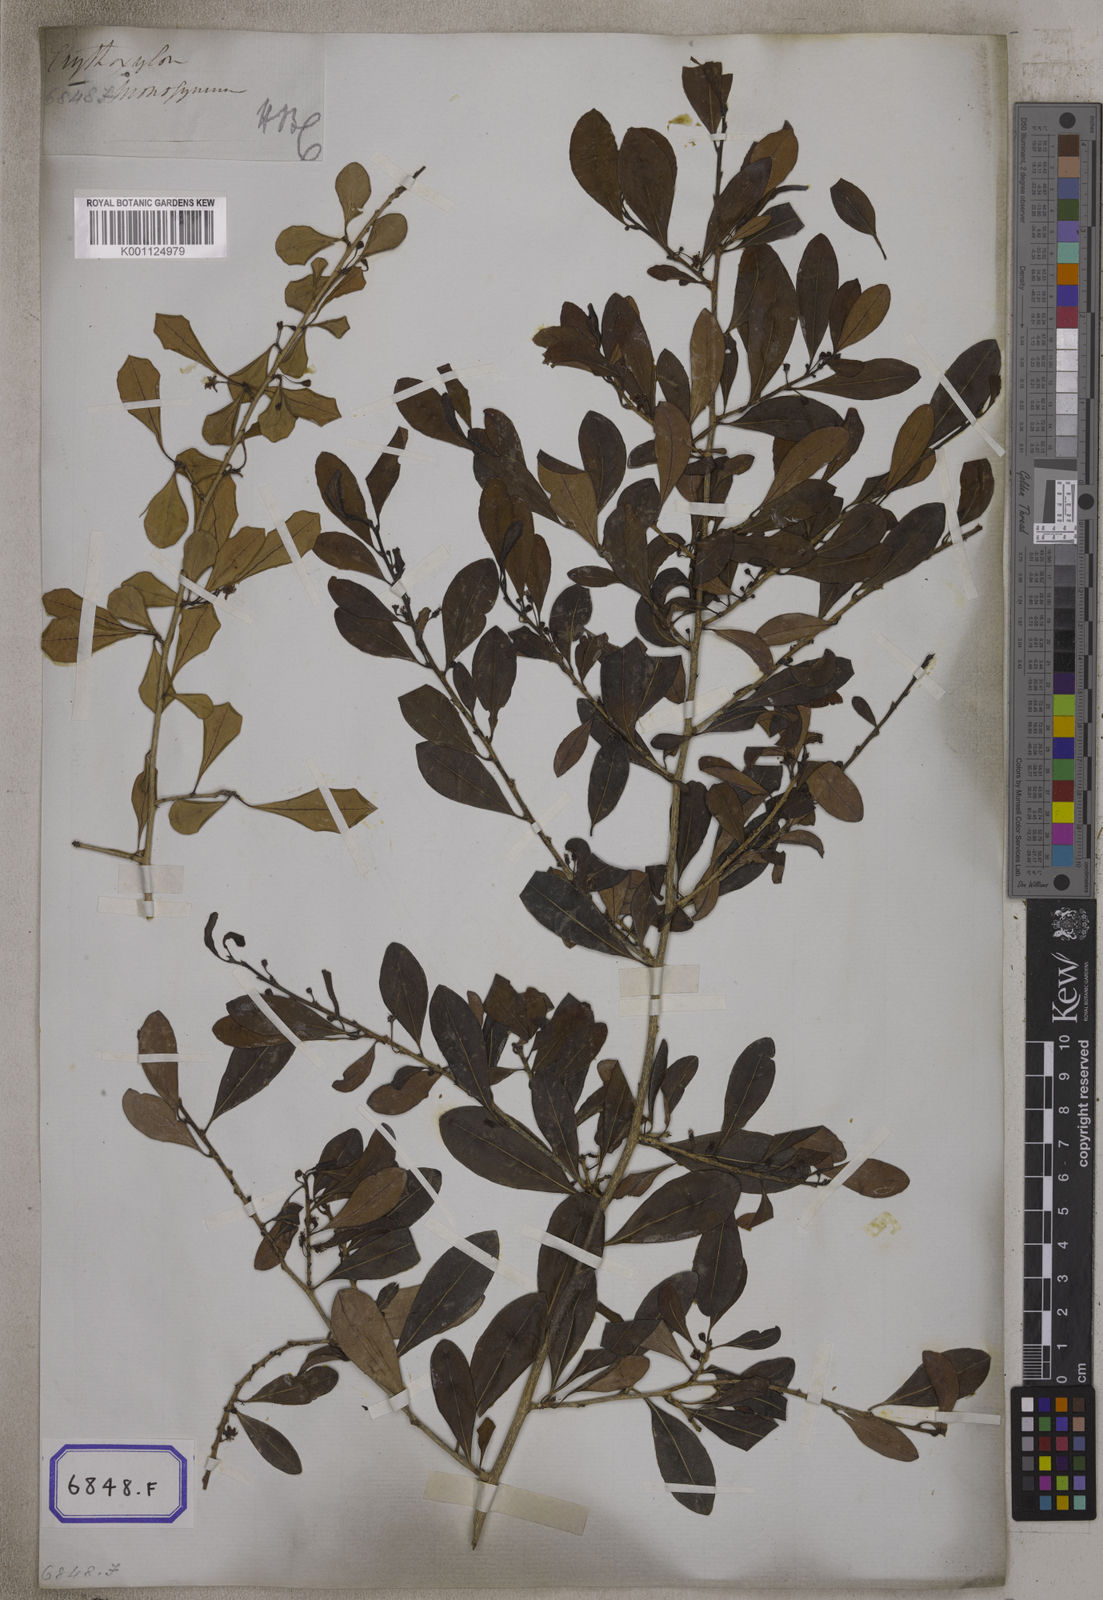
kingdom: Plantae
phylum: Tracheophyta
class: Magnoliopsida
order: Malpighiales
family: Erythroxylaceae
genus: Erythroxylum
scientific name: Erythroxylum monogynum
